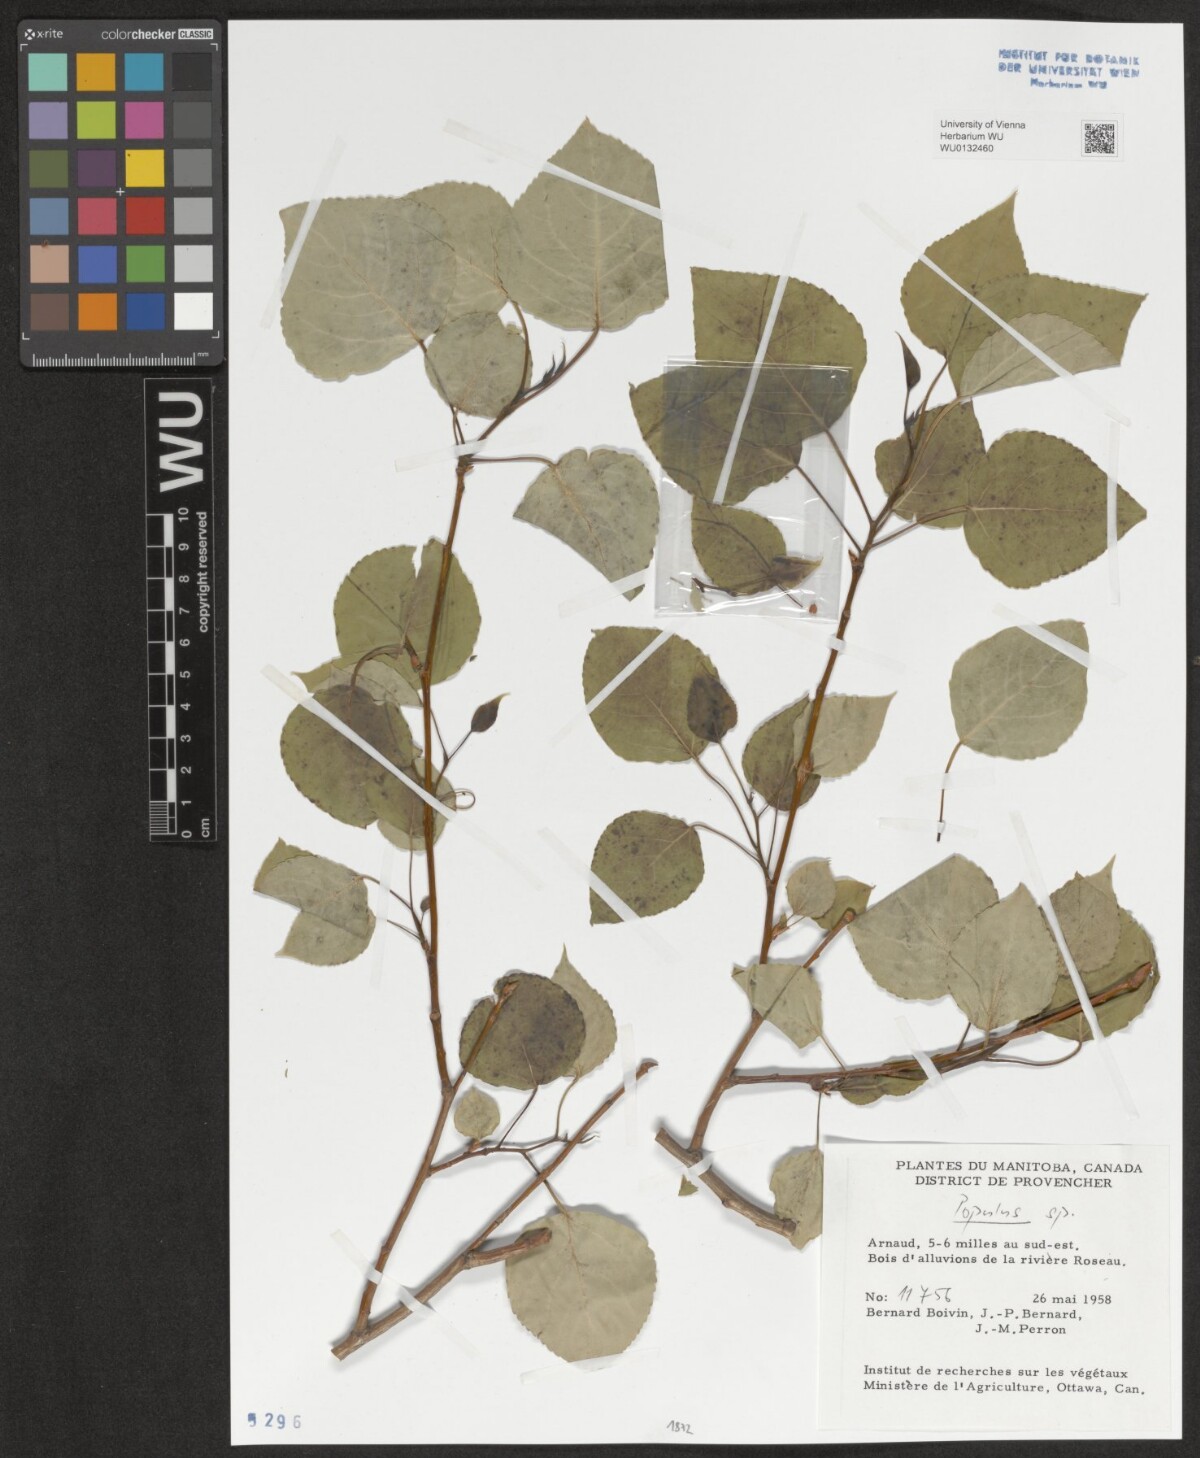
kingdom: Plantae
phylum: Tracheophyta
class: Magnoliopsida
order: Malpighiales
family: Salicaceae
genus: Populus
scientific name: Populus
